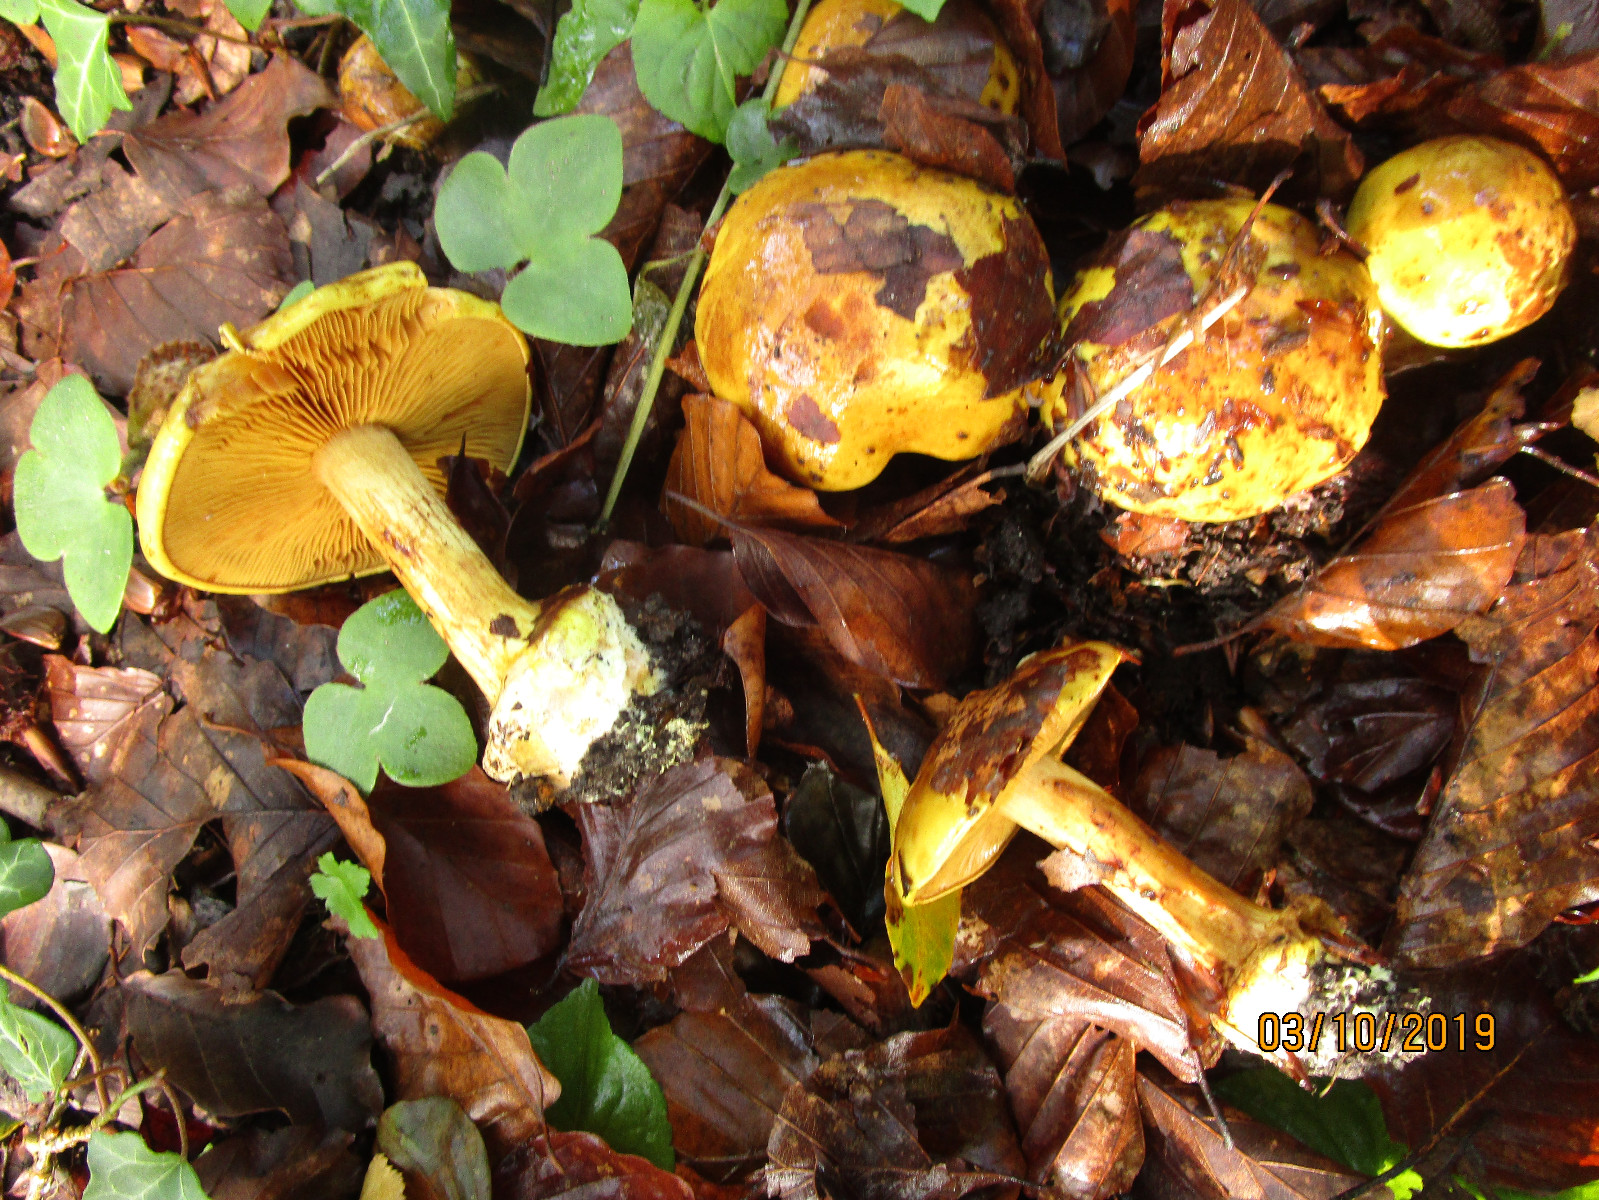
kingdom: Fungi
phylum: Basidiomycota
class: Agaricomycetes
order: Agaricales
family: Cortinariaceae
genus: Calonarius
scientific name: Calonarius splendens
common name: sirene-slørhat
